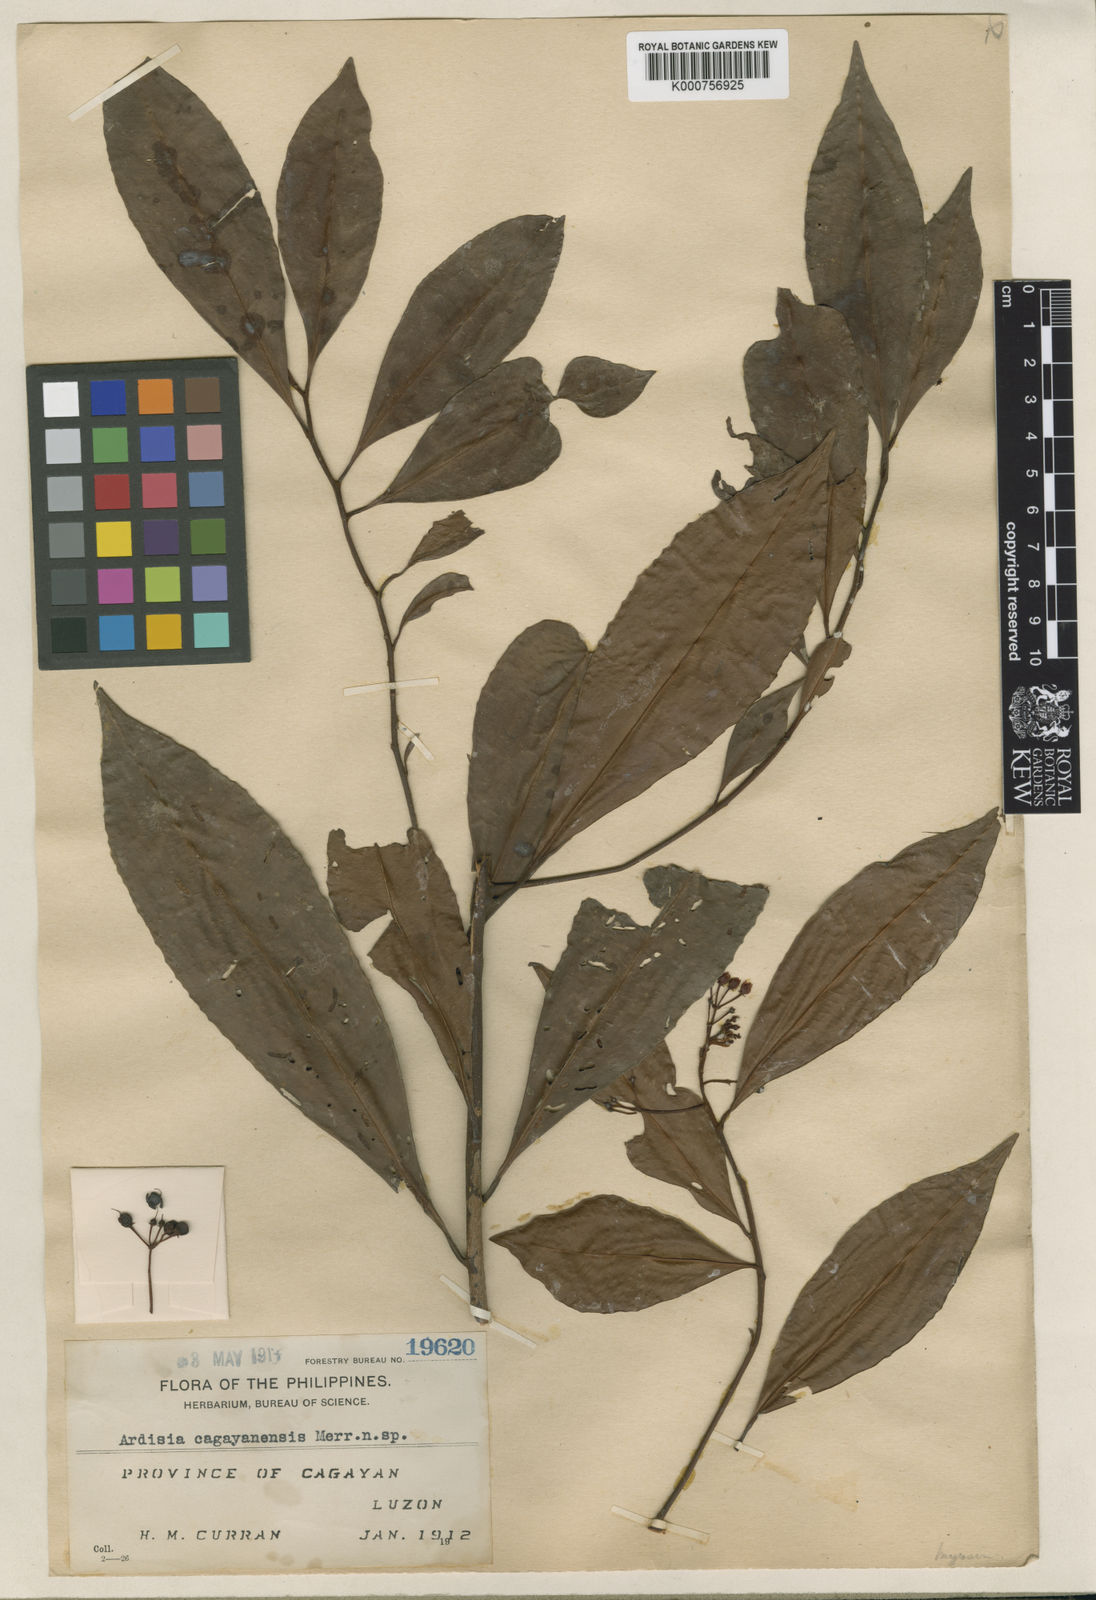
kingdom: Plantae
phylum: Tracheophyta
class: Magnoliopsida
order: Ericales
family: Primulaceae
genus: Ardisia
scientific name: Ardisia cymosa
